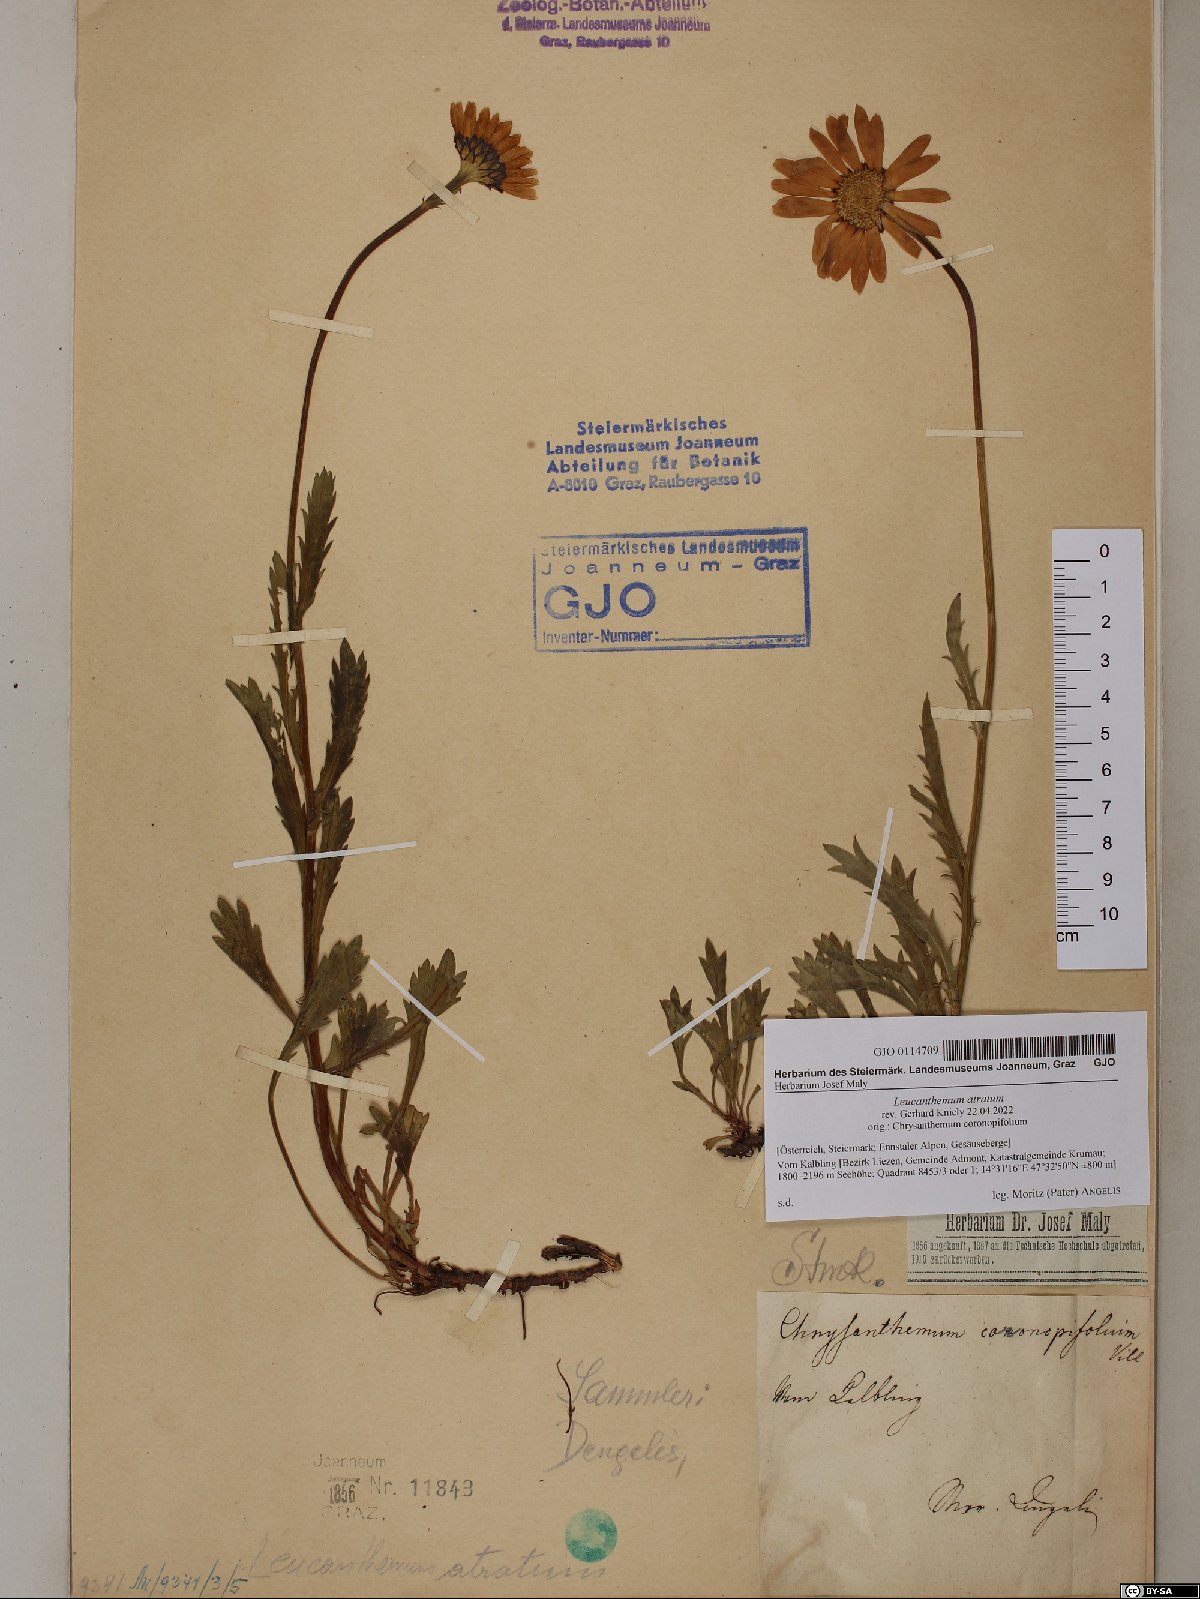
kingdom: Plantae
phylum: Tracheophyta
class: Magnoliopsida
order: Asterales
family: Asteraceae
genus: Leucanthemum
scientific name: Leucanthemum atratum
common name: Saw-leaved moon-daisy
